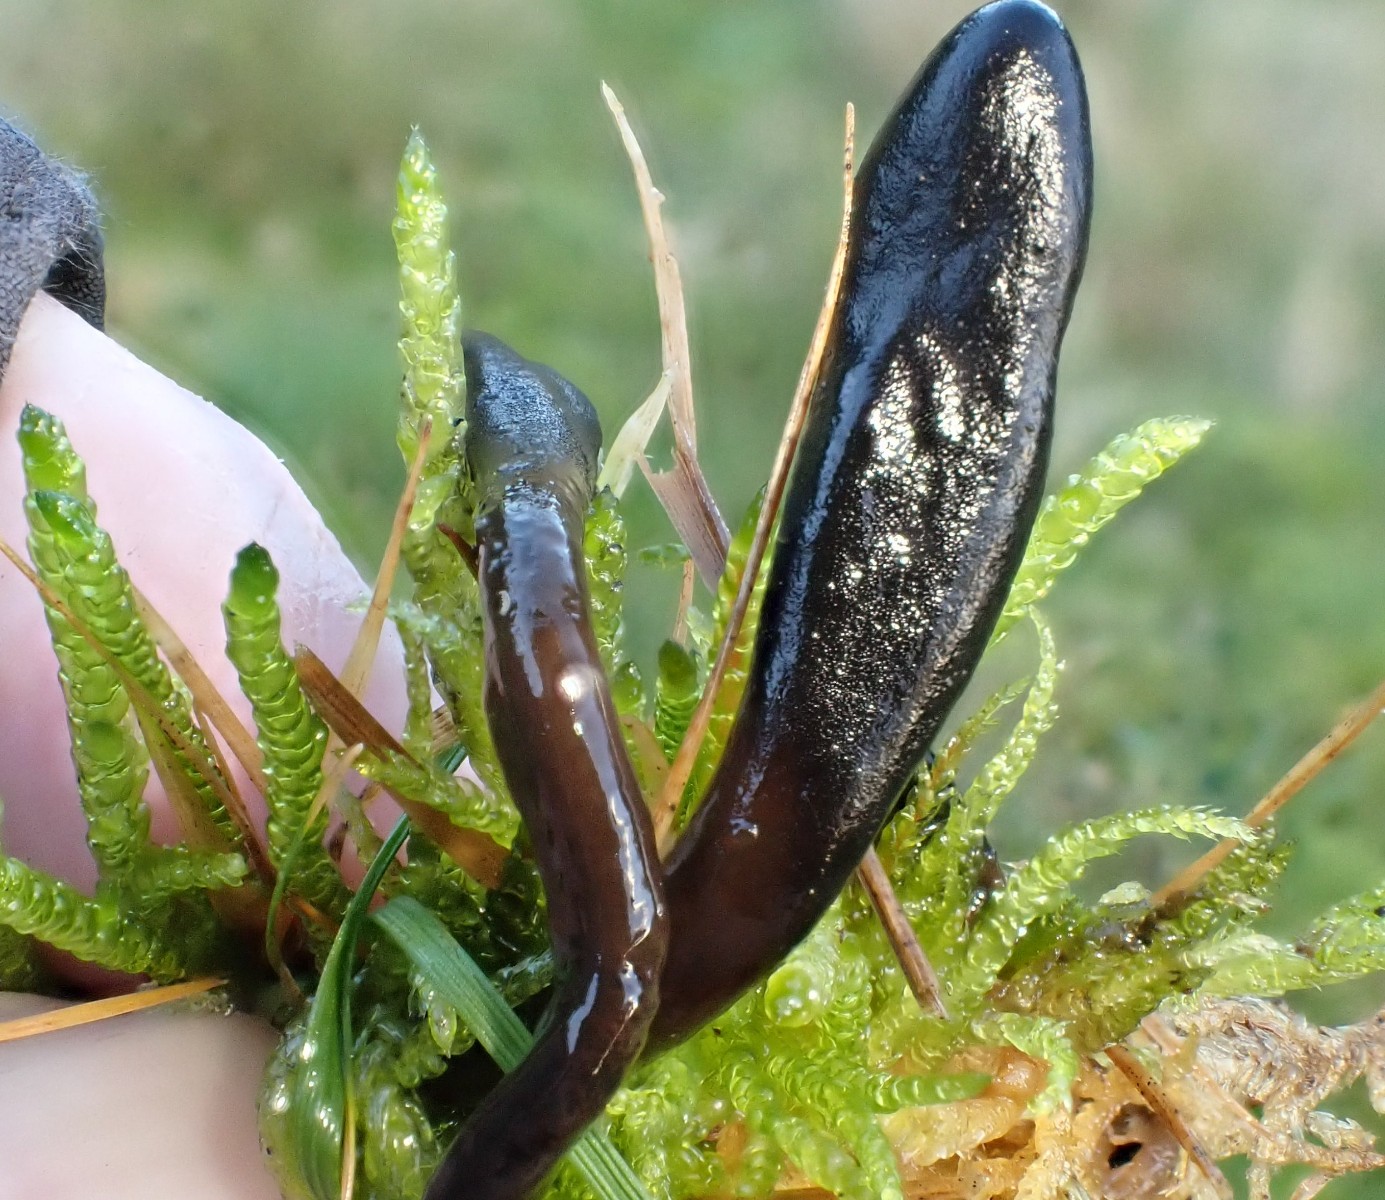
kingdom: Fungi
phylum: Ascomycota
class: Geoglossomycetes
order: Geoglossales
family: Geoglossaceae
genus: Glutinoglossum
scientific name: Glutinoglossum glutinosum
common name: slimet jordtunge
